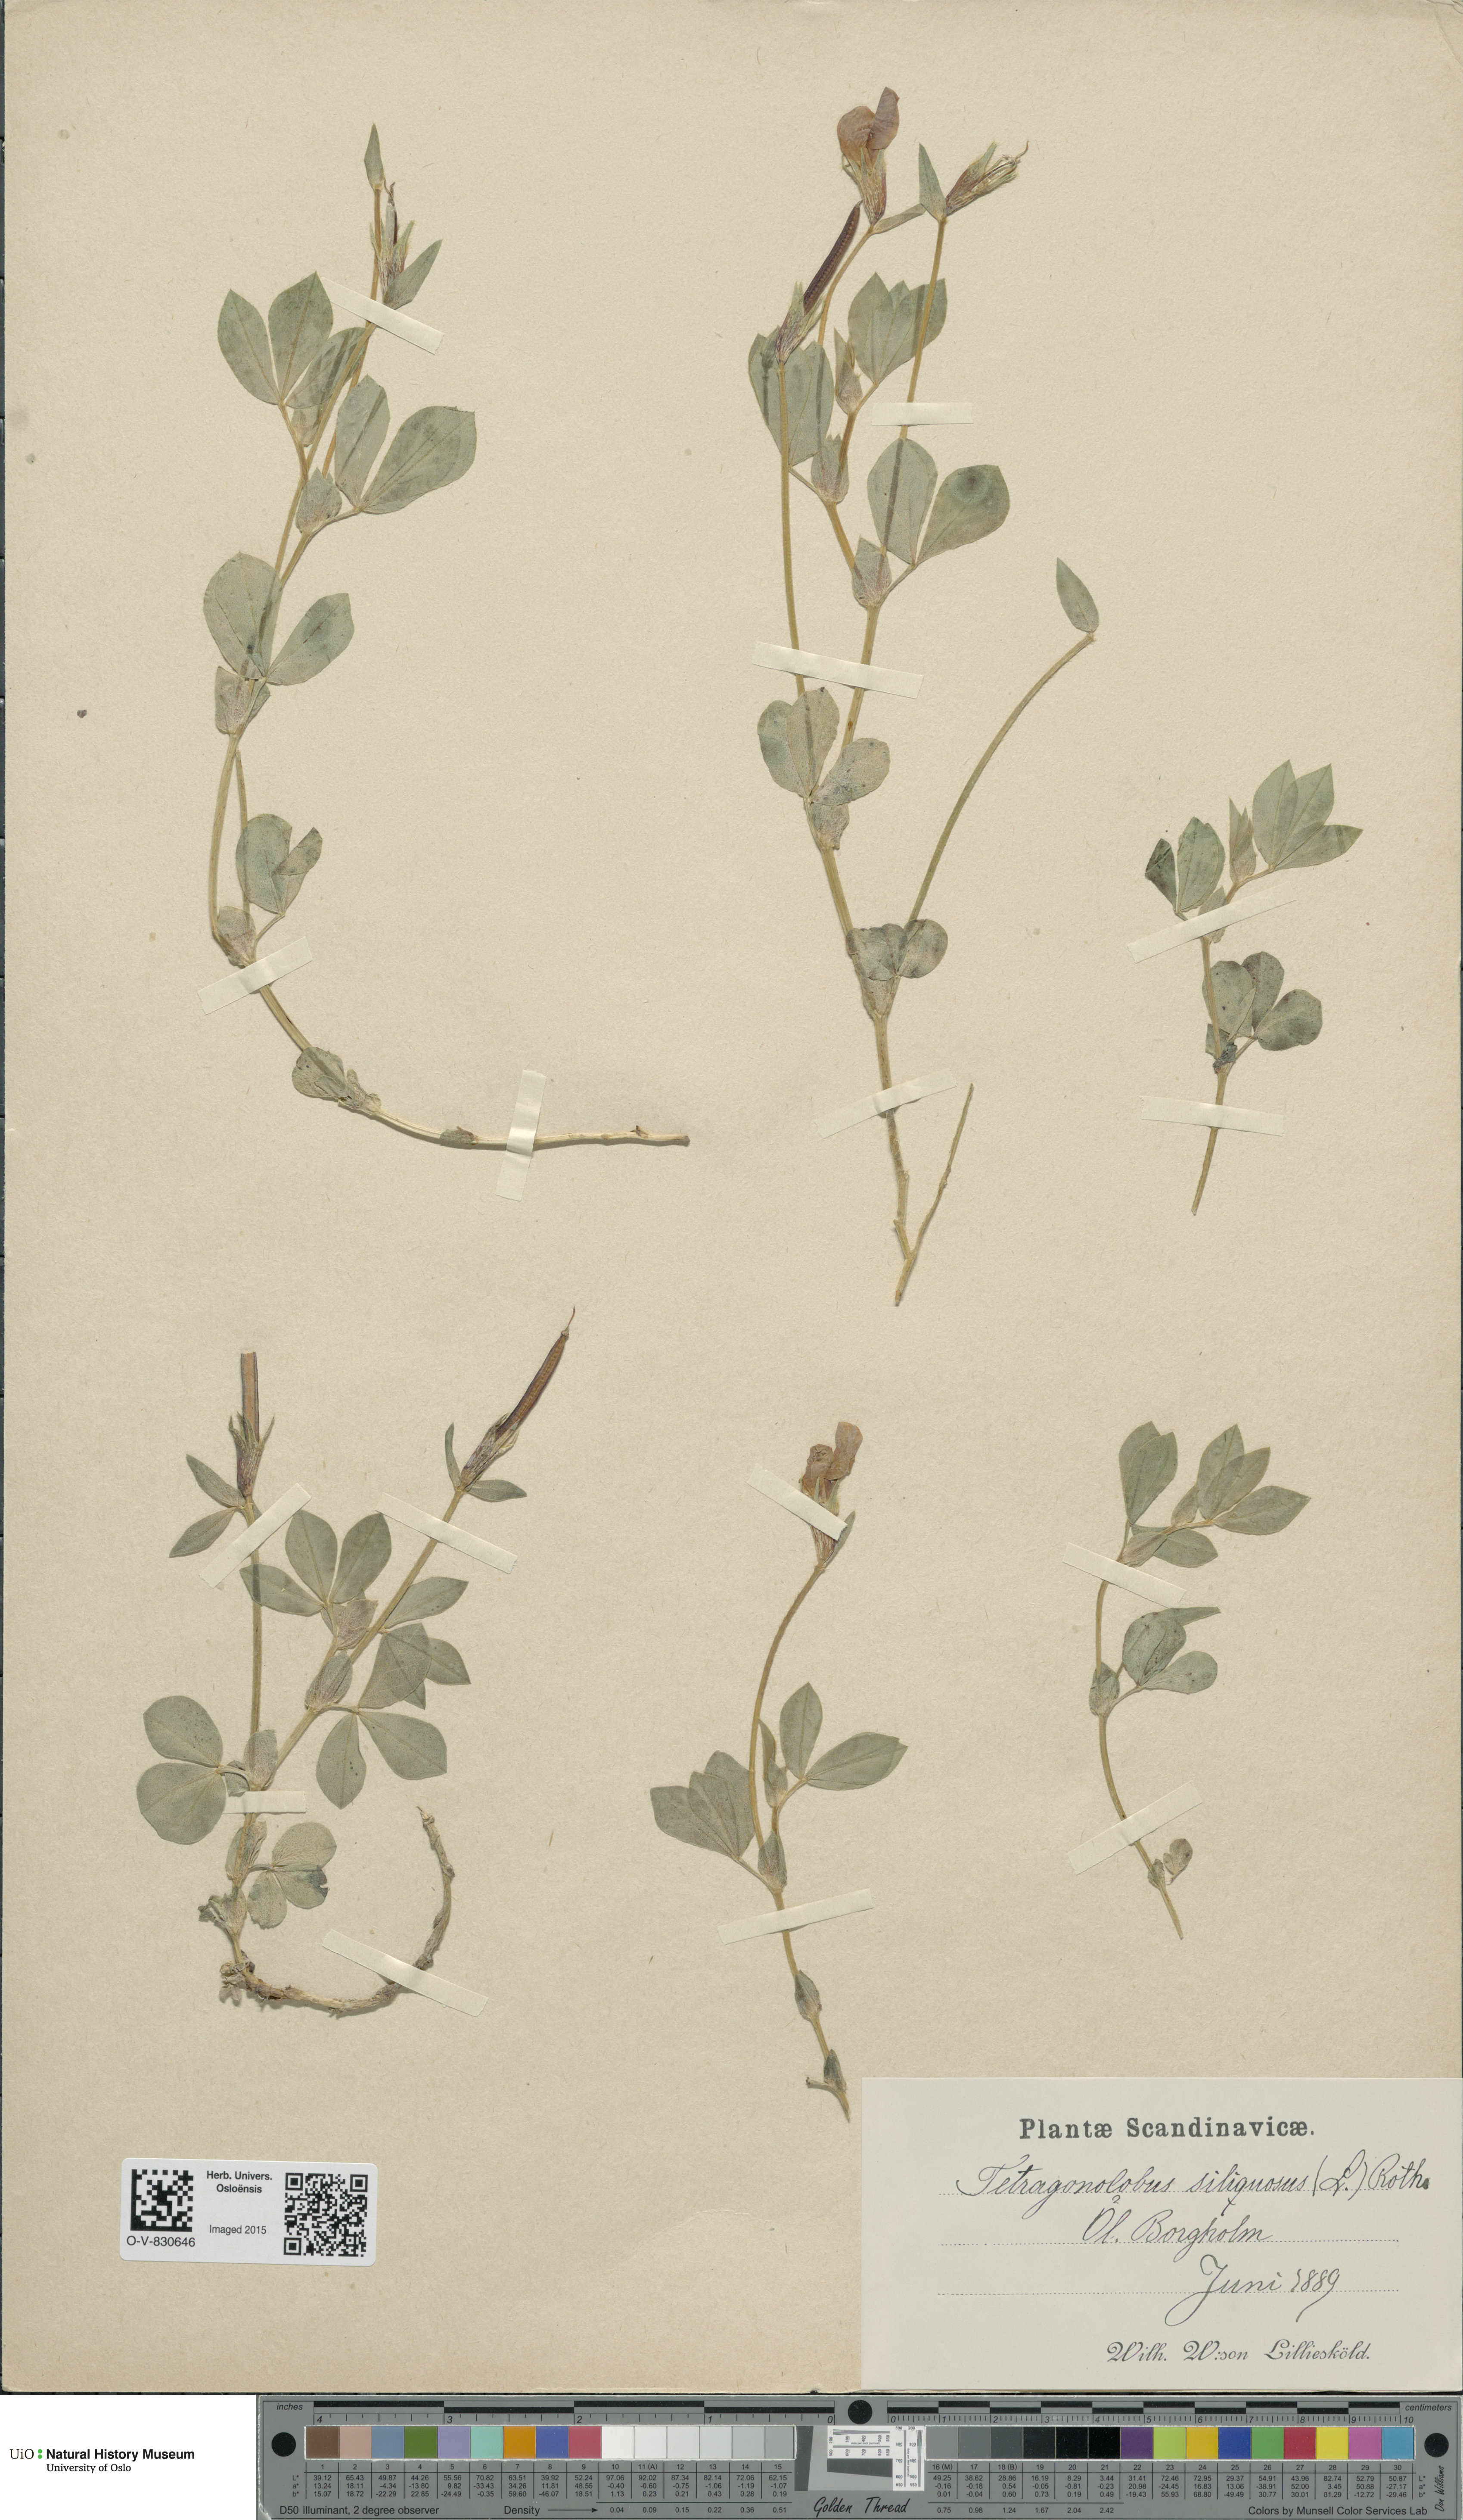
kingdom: Plantae
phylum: Tracheophyta
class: Magnoliopsida
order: Fabales
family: Fabaceae
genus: Lotus
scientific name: Lotus maritimus
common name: Dragon's-teeth
